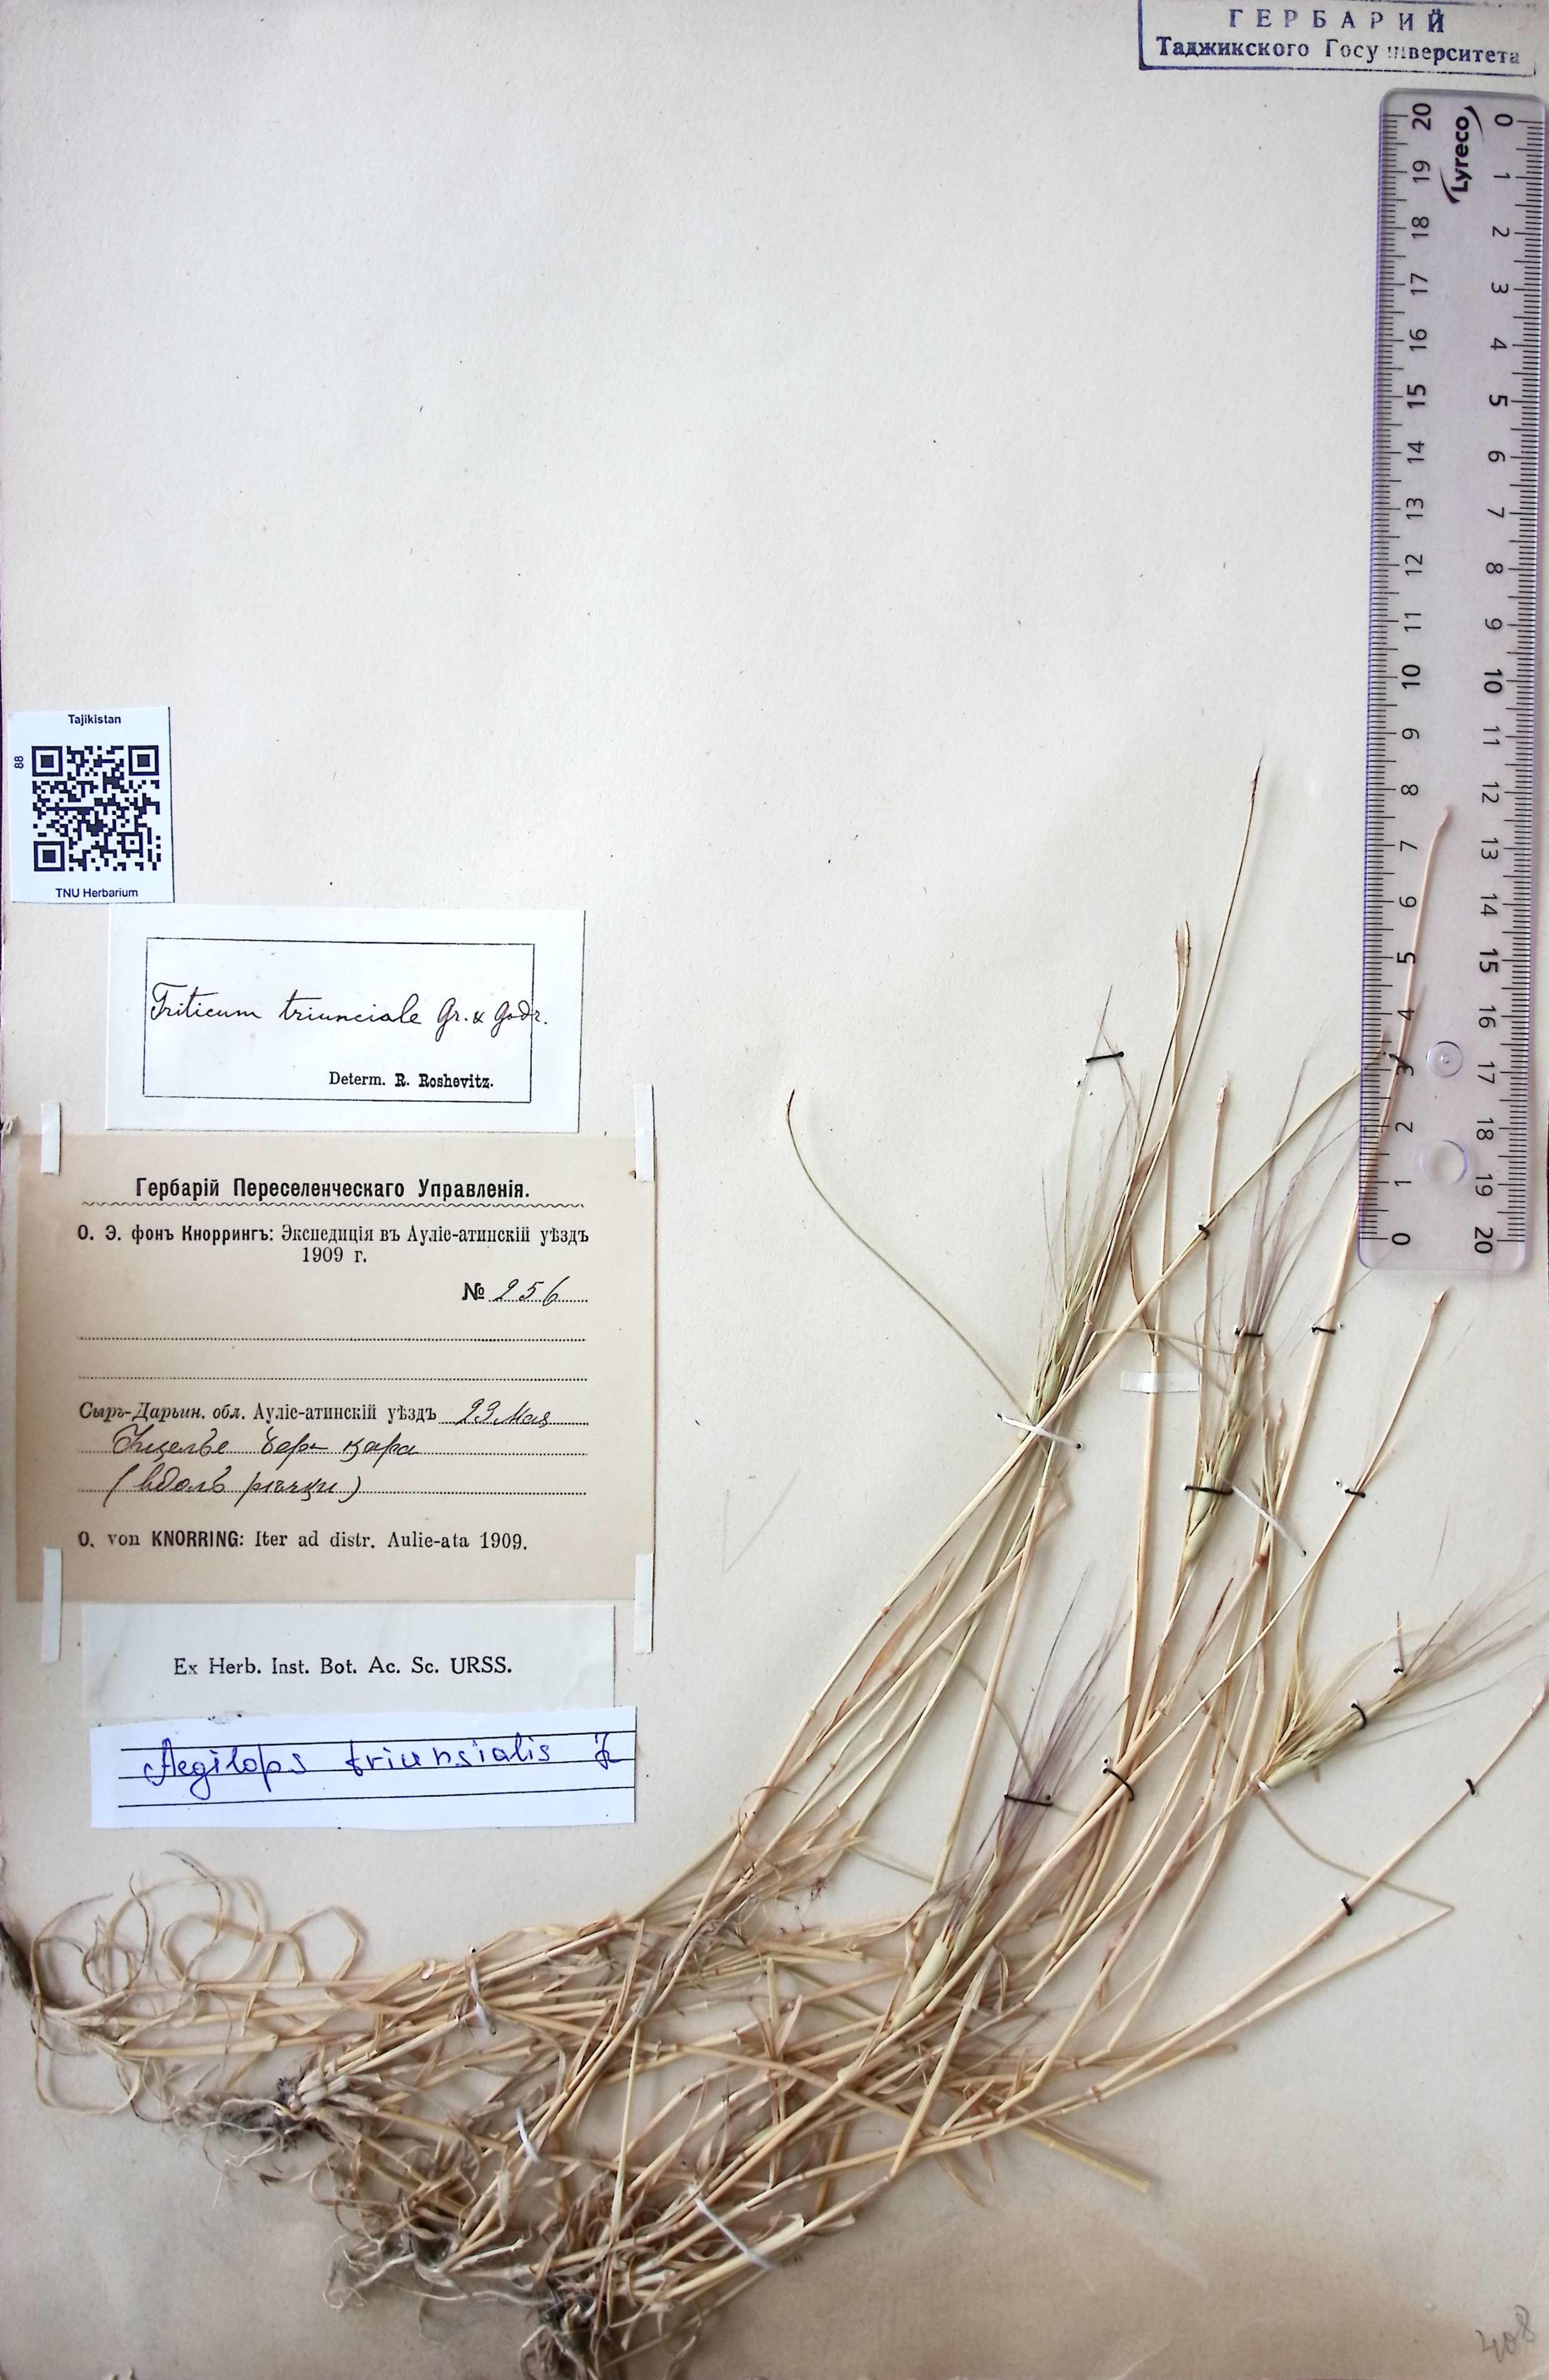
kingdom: Plantae
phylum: Tracheophyta
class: Liliopsida
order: Poales
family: Poaceae
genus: Aegilops
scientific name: Aegilops triuncialis
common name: Barb goat grass
